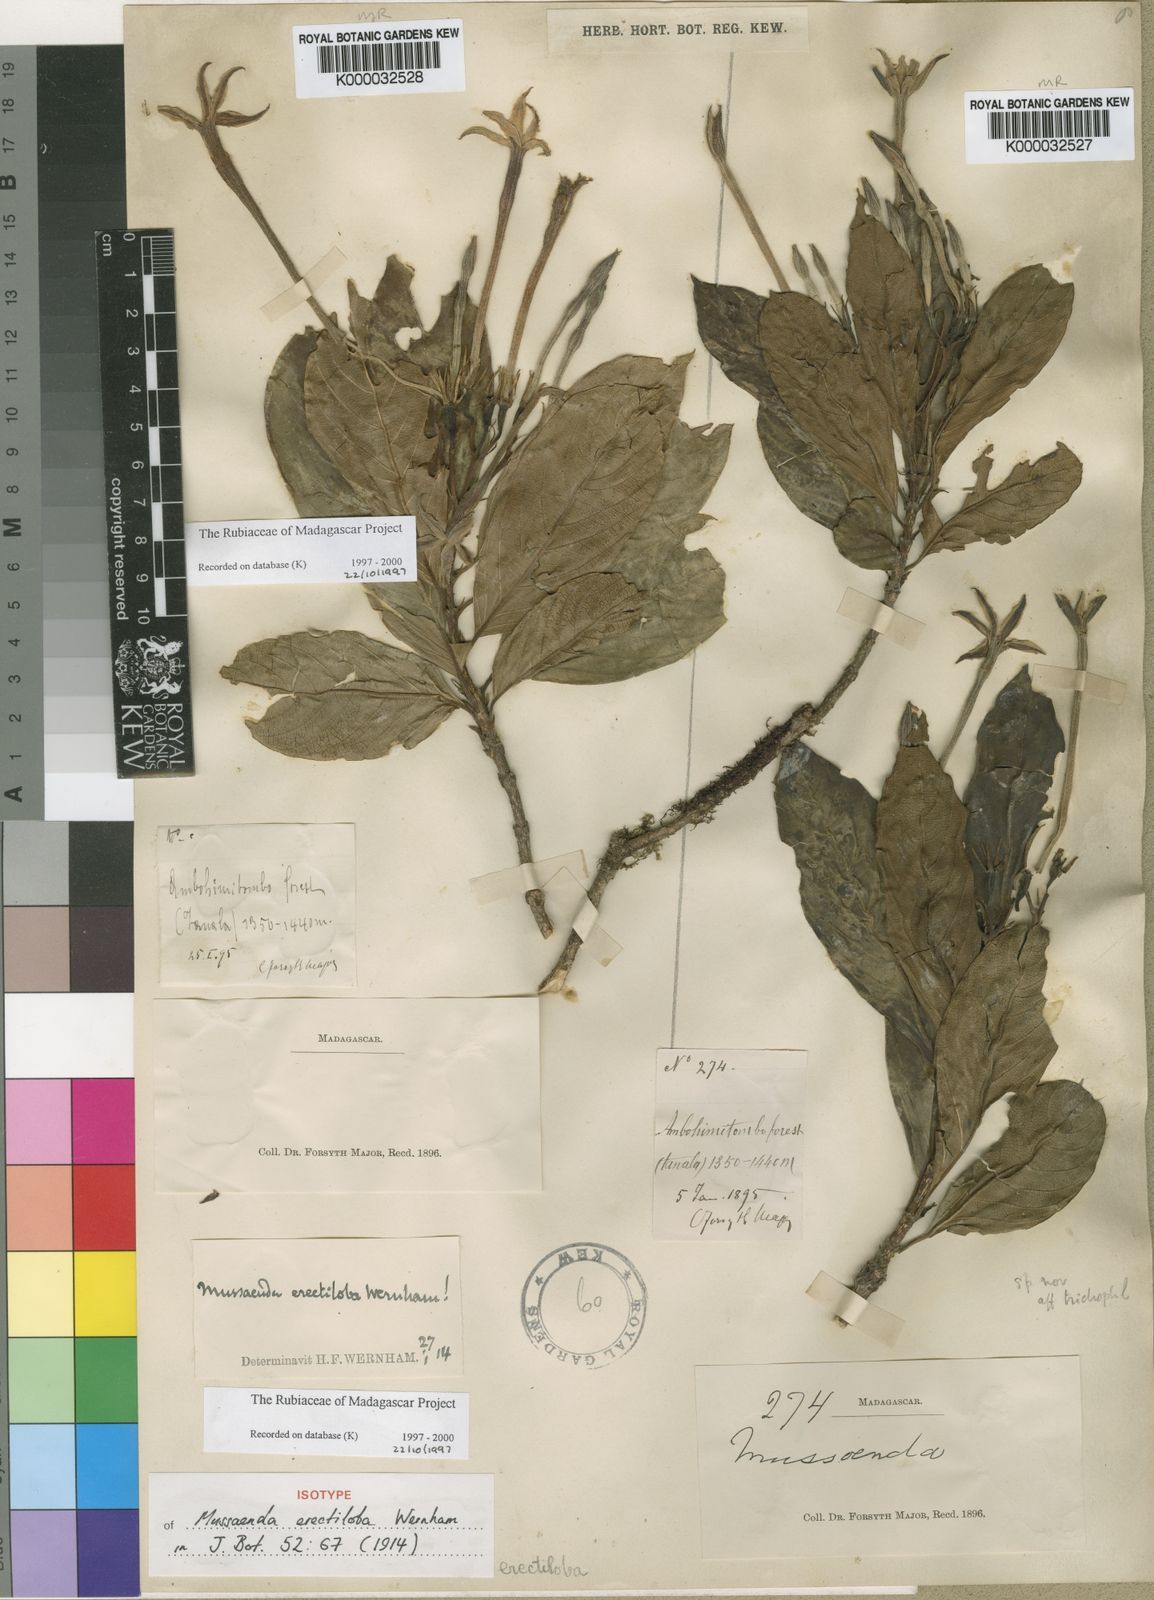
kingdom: Plantae
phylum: Tracheophyta
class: Magnoliopsida
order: Gentianales
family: Rubiaceae
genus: Bremeria
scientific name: Bremeria erectiloba
